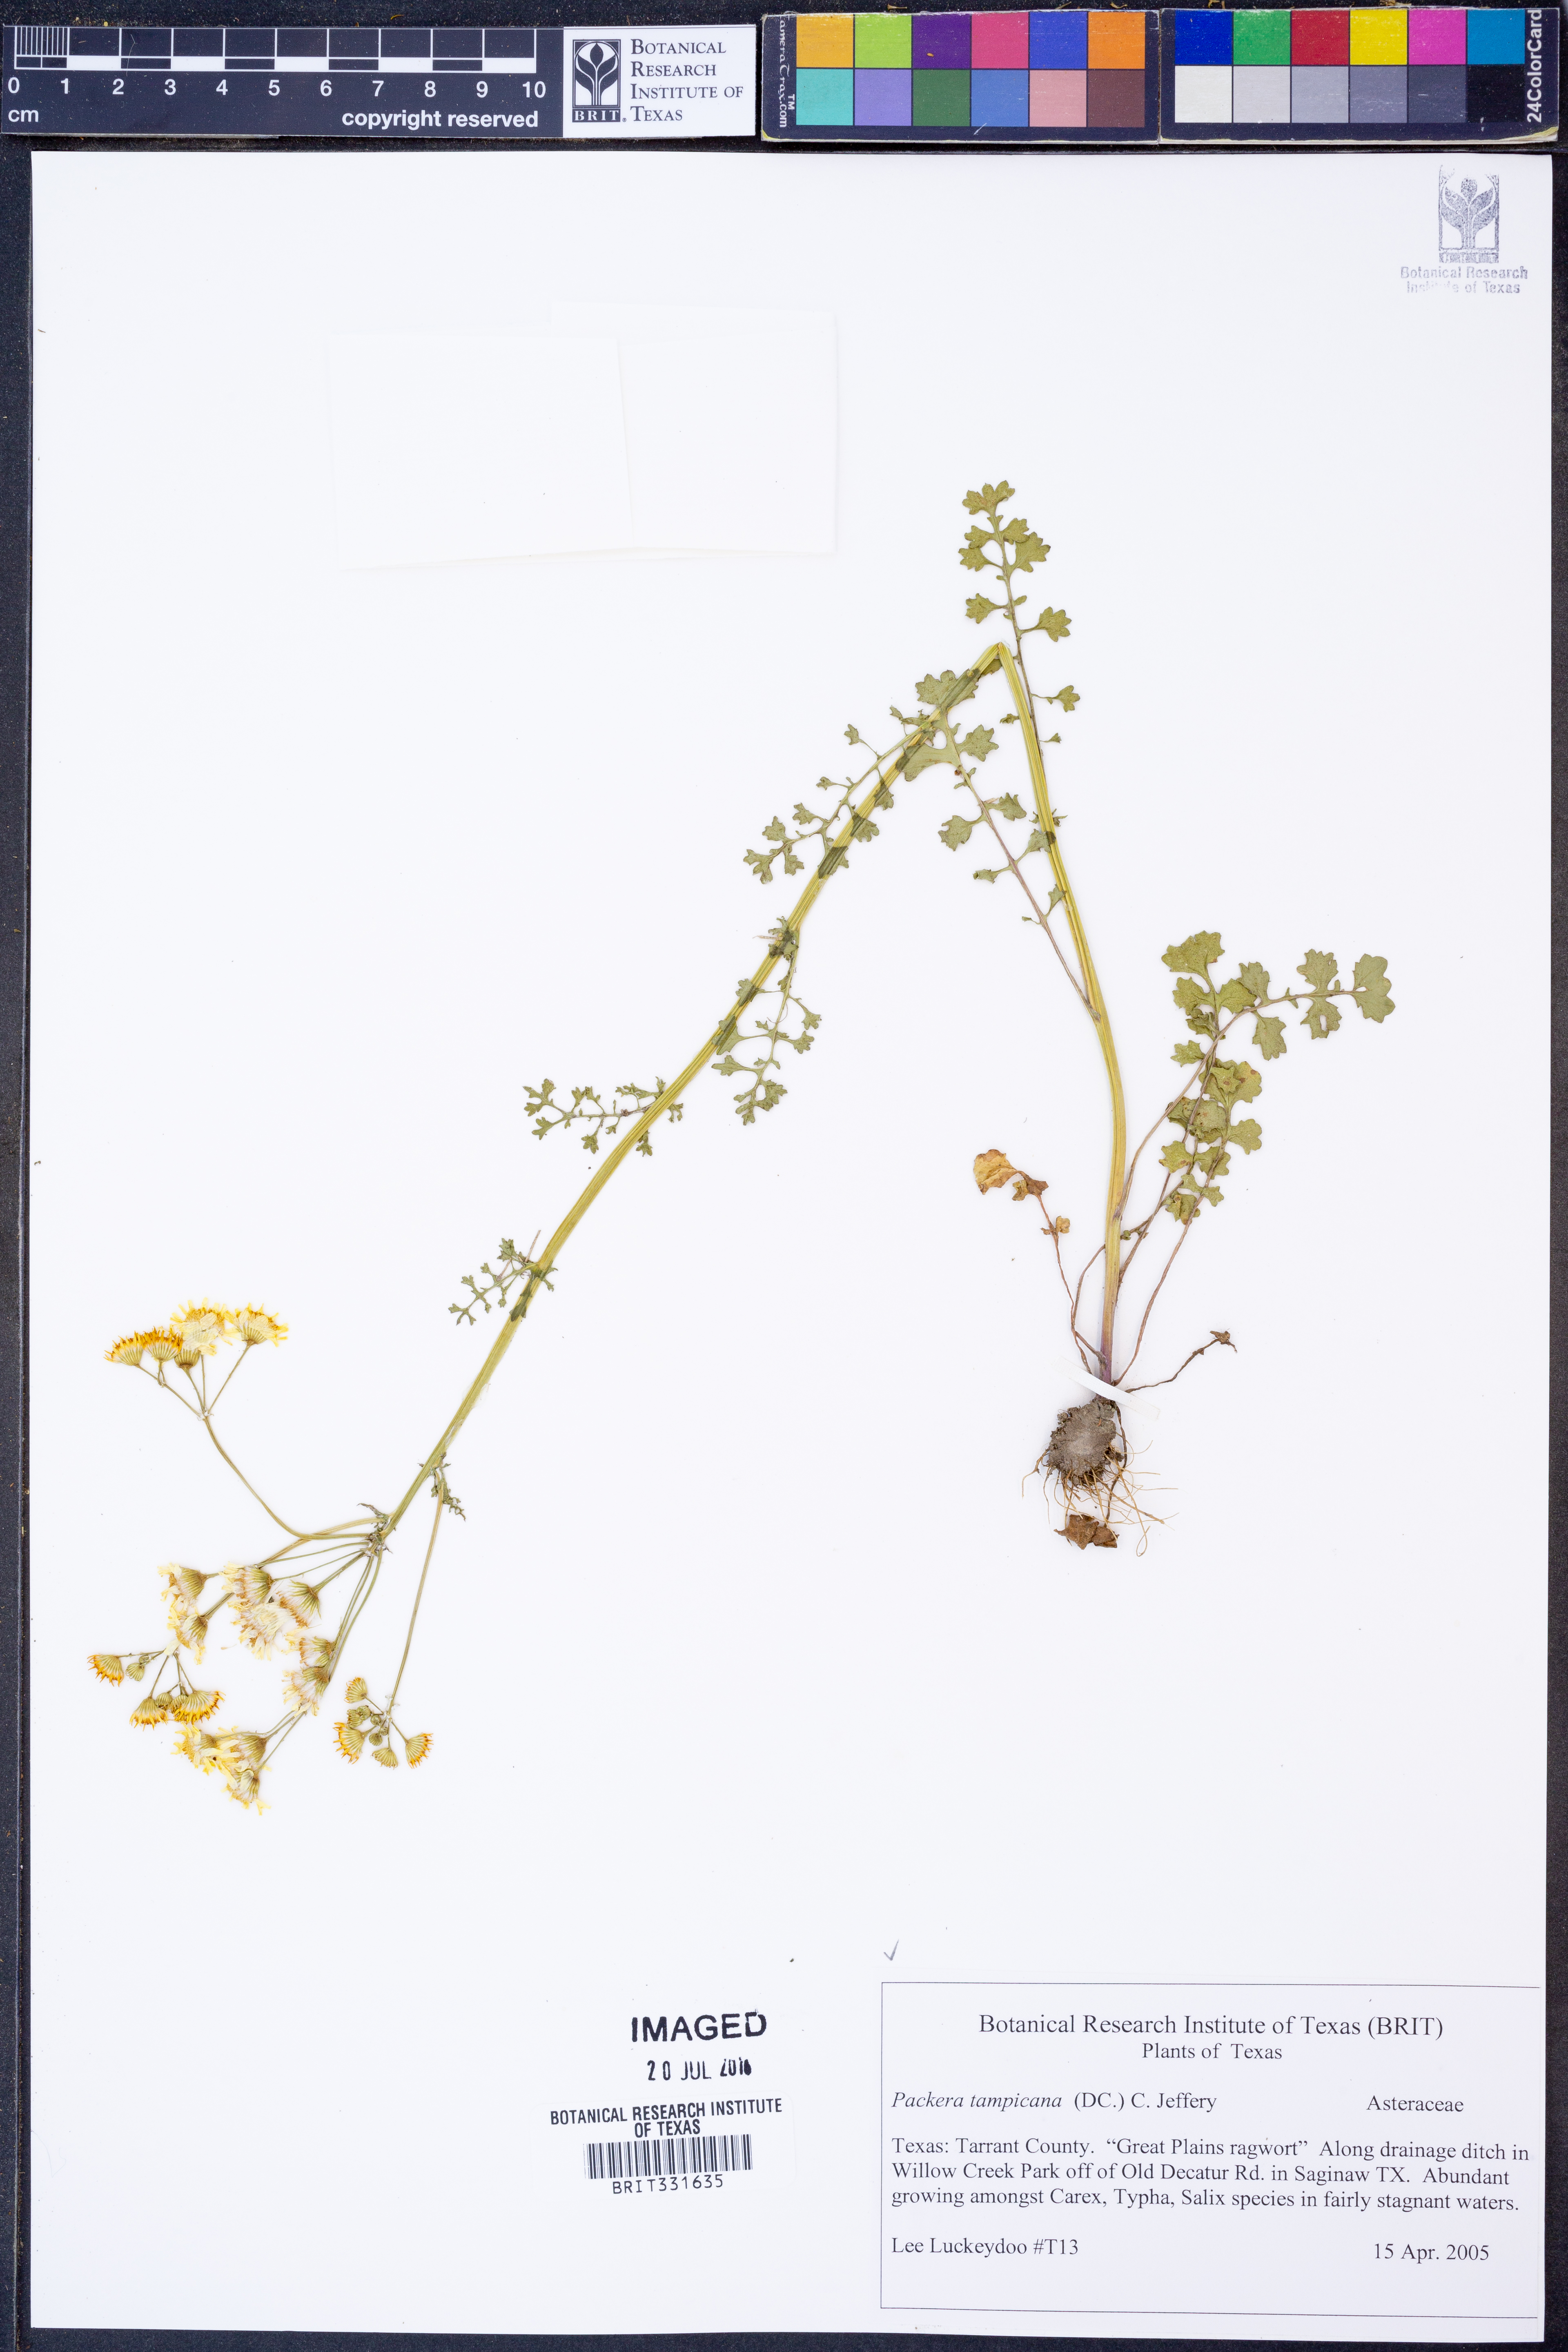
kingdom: Plantae
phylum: Tracheophyta
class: Magnoliopsida
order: Asterales
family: Asteraceae
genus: Packera
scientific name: Packera tampicana
